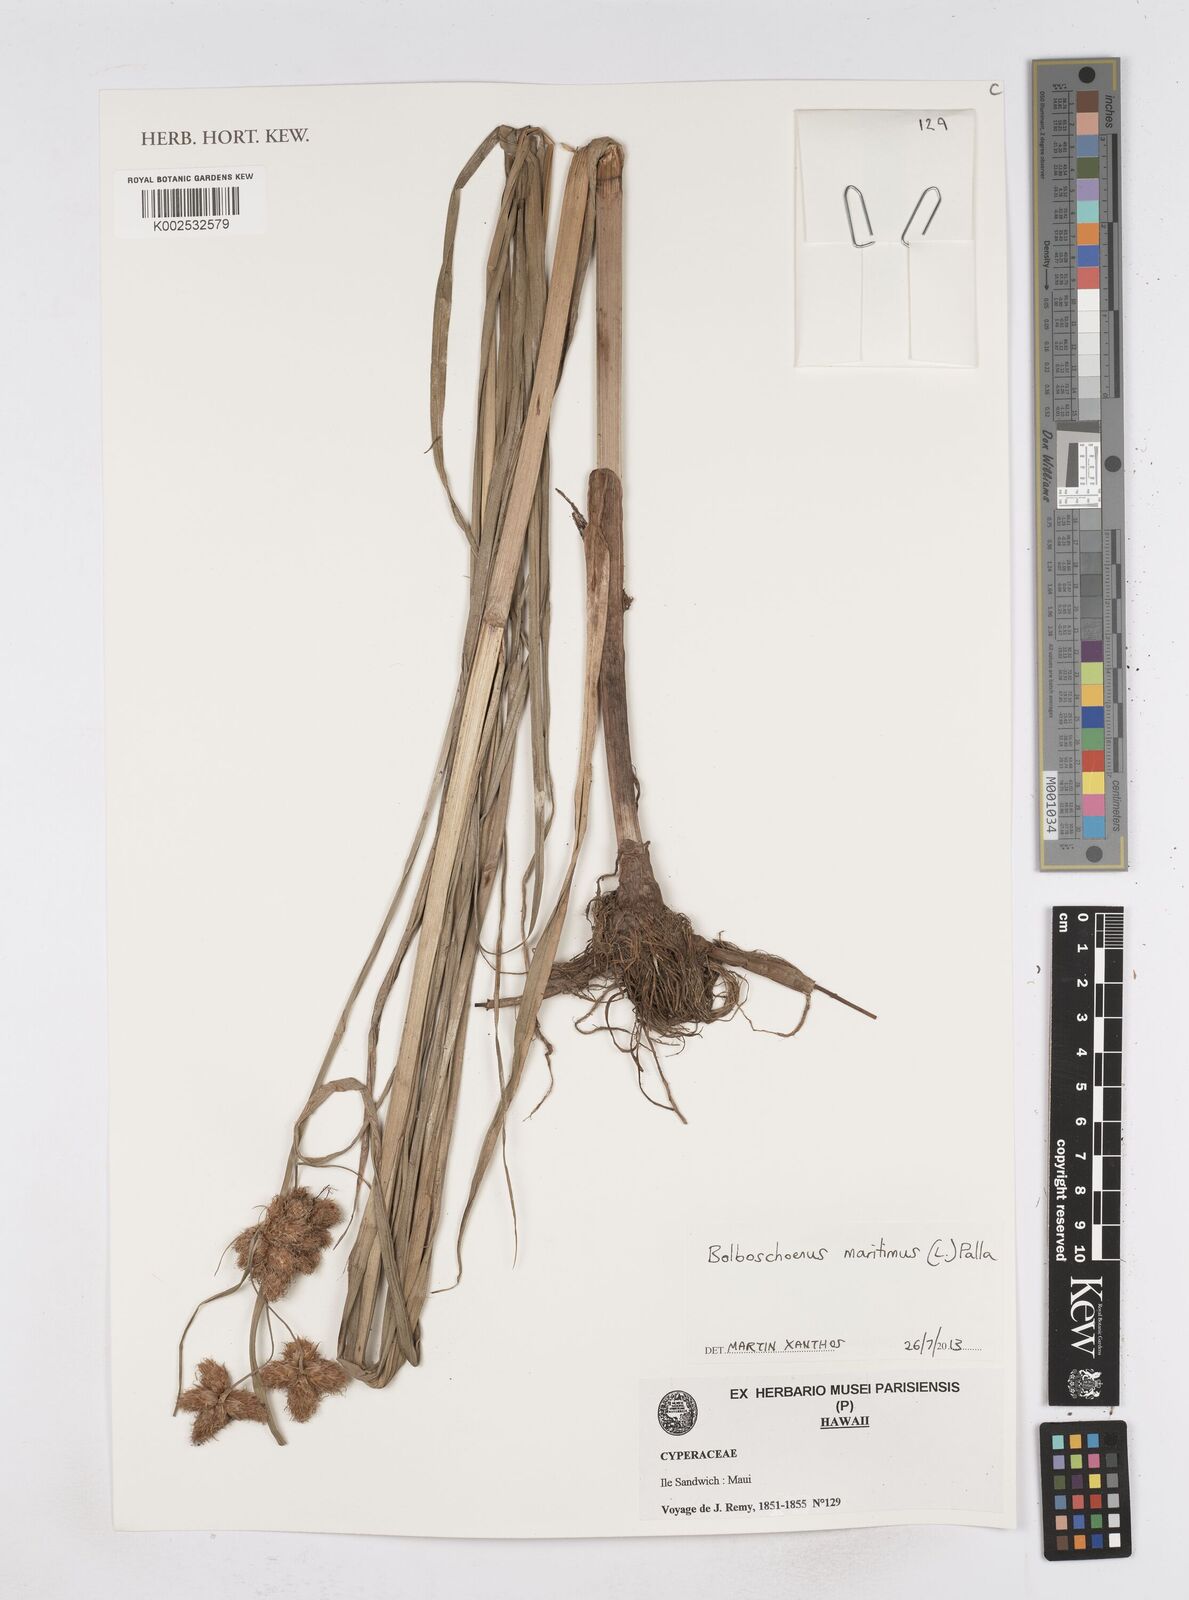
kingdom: Plantae
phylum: Tracheophyta
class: Liliopsida
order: Poales
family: Cyperaceae
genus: Bolboschoenus
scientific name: Bolboschoenus maritimus
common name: Sea club-rush
